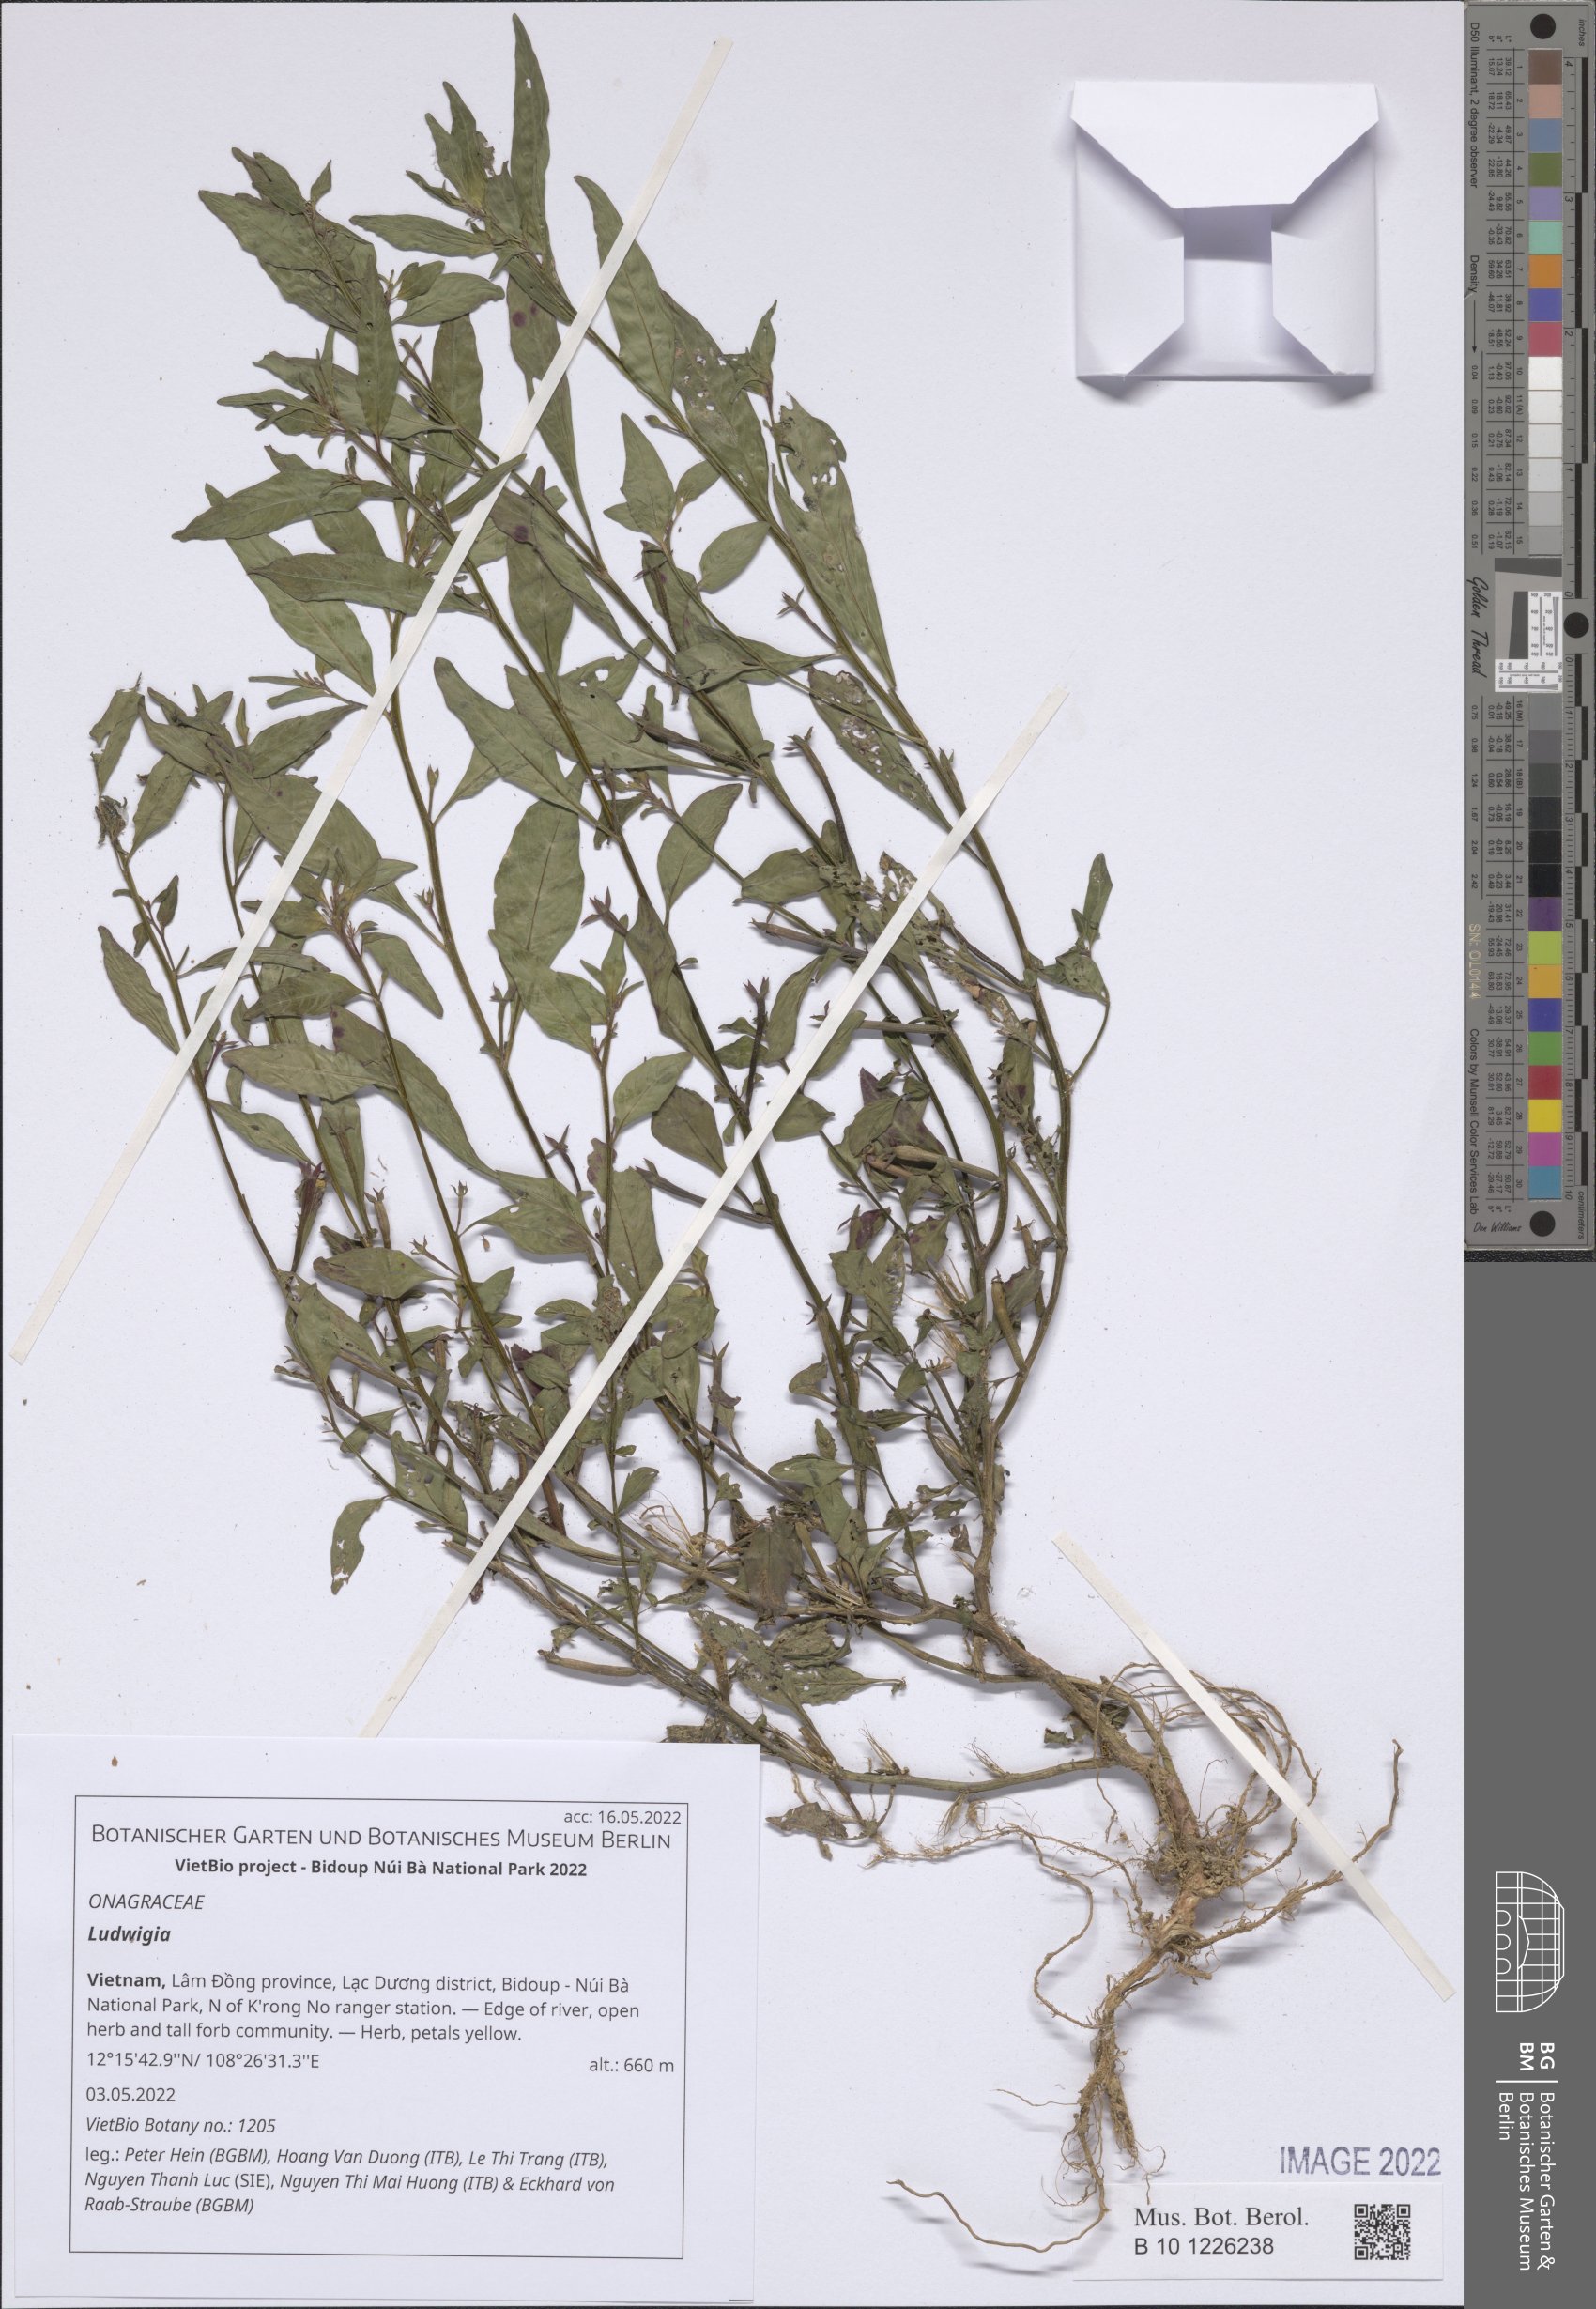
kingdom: Plantae
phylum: Tracheophyta
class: Magnoliopsida
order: Myrtales
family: Onagraceae
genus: Ludwigia
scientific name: Ludwigia
